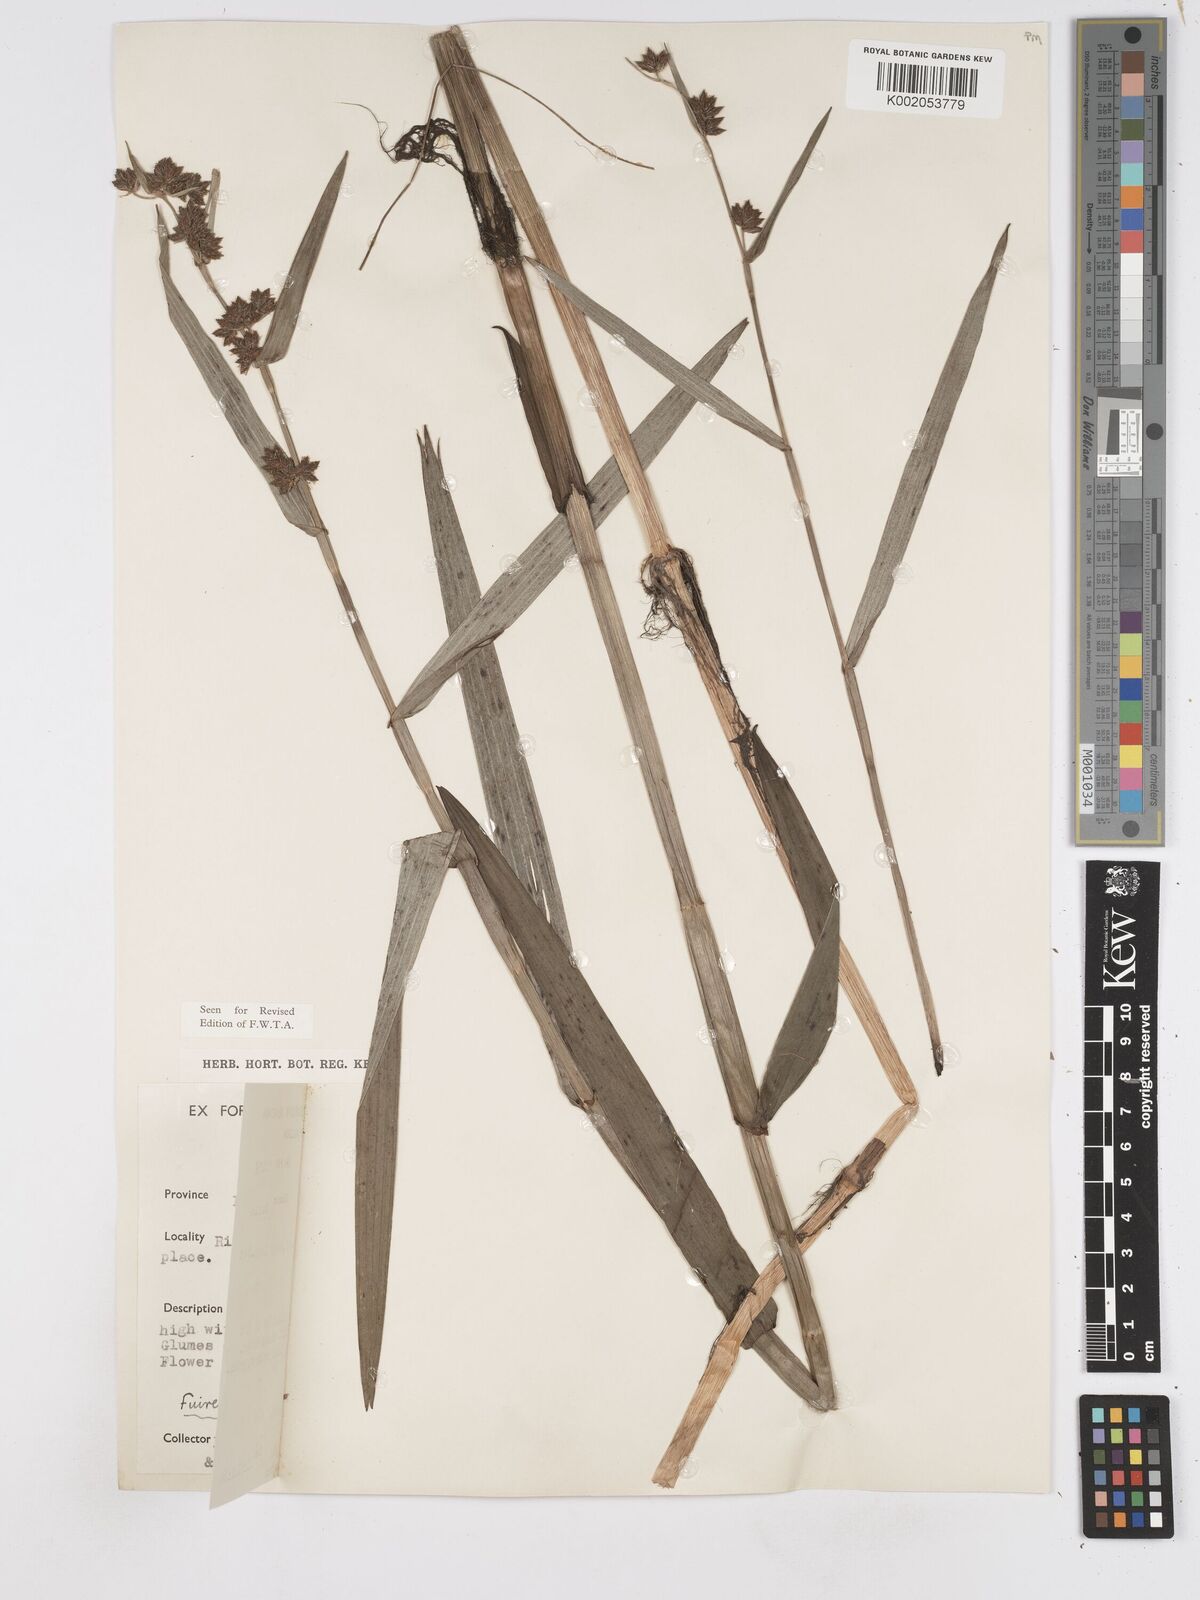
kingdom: Plantae
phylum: Tracheophyta
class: Liliopsida
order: Poales
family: Cyperaceae
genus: Fuirena
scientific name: Fuirena umbellata
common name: Yefen
